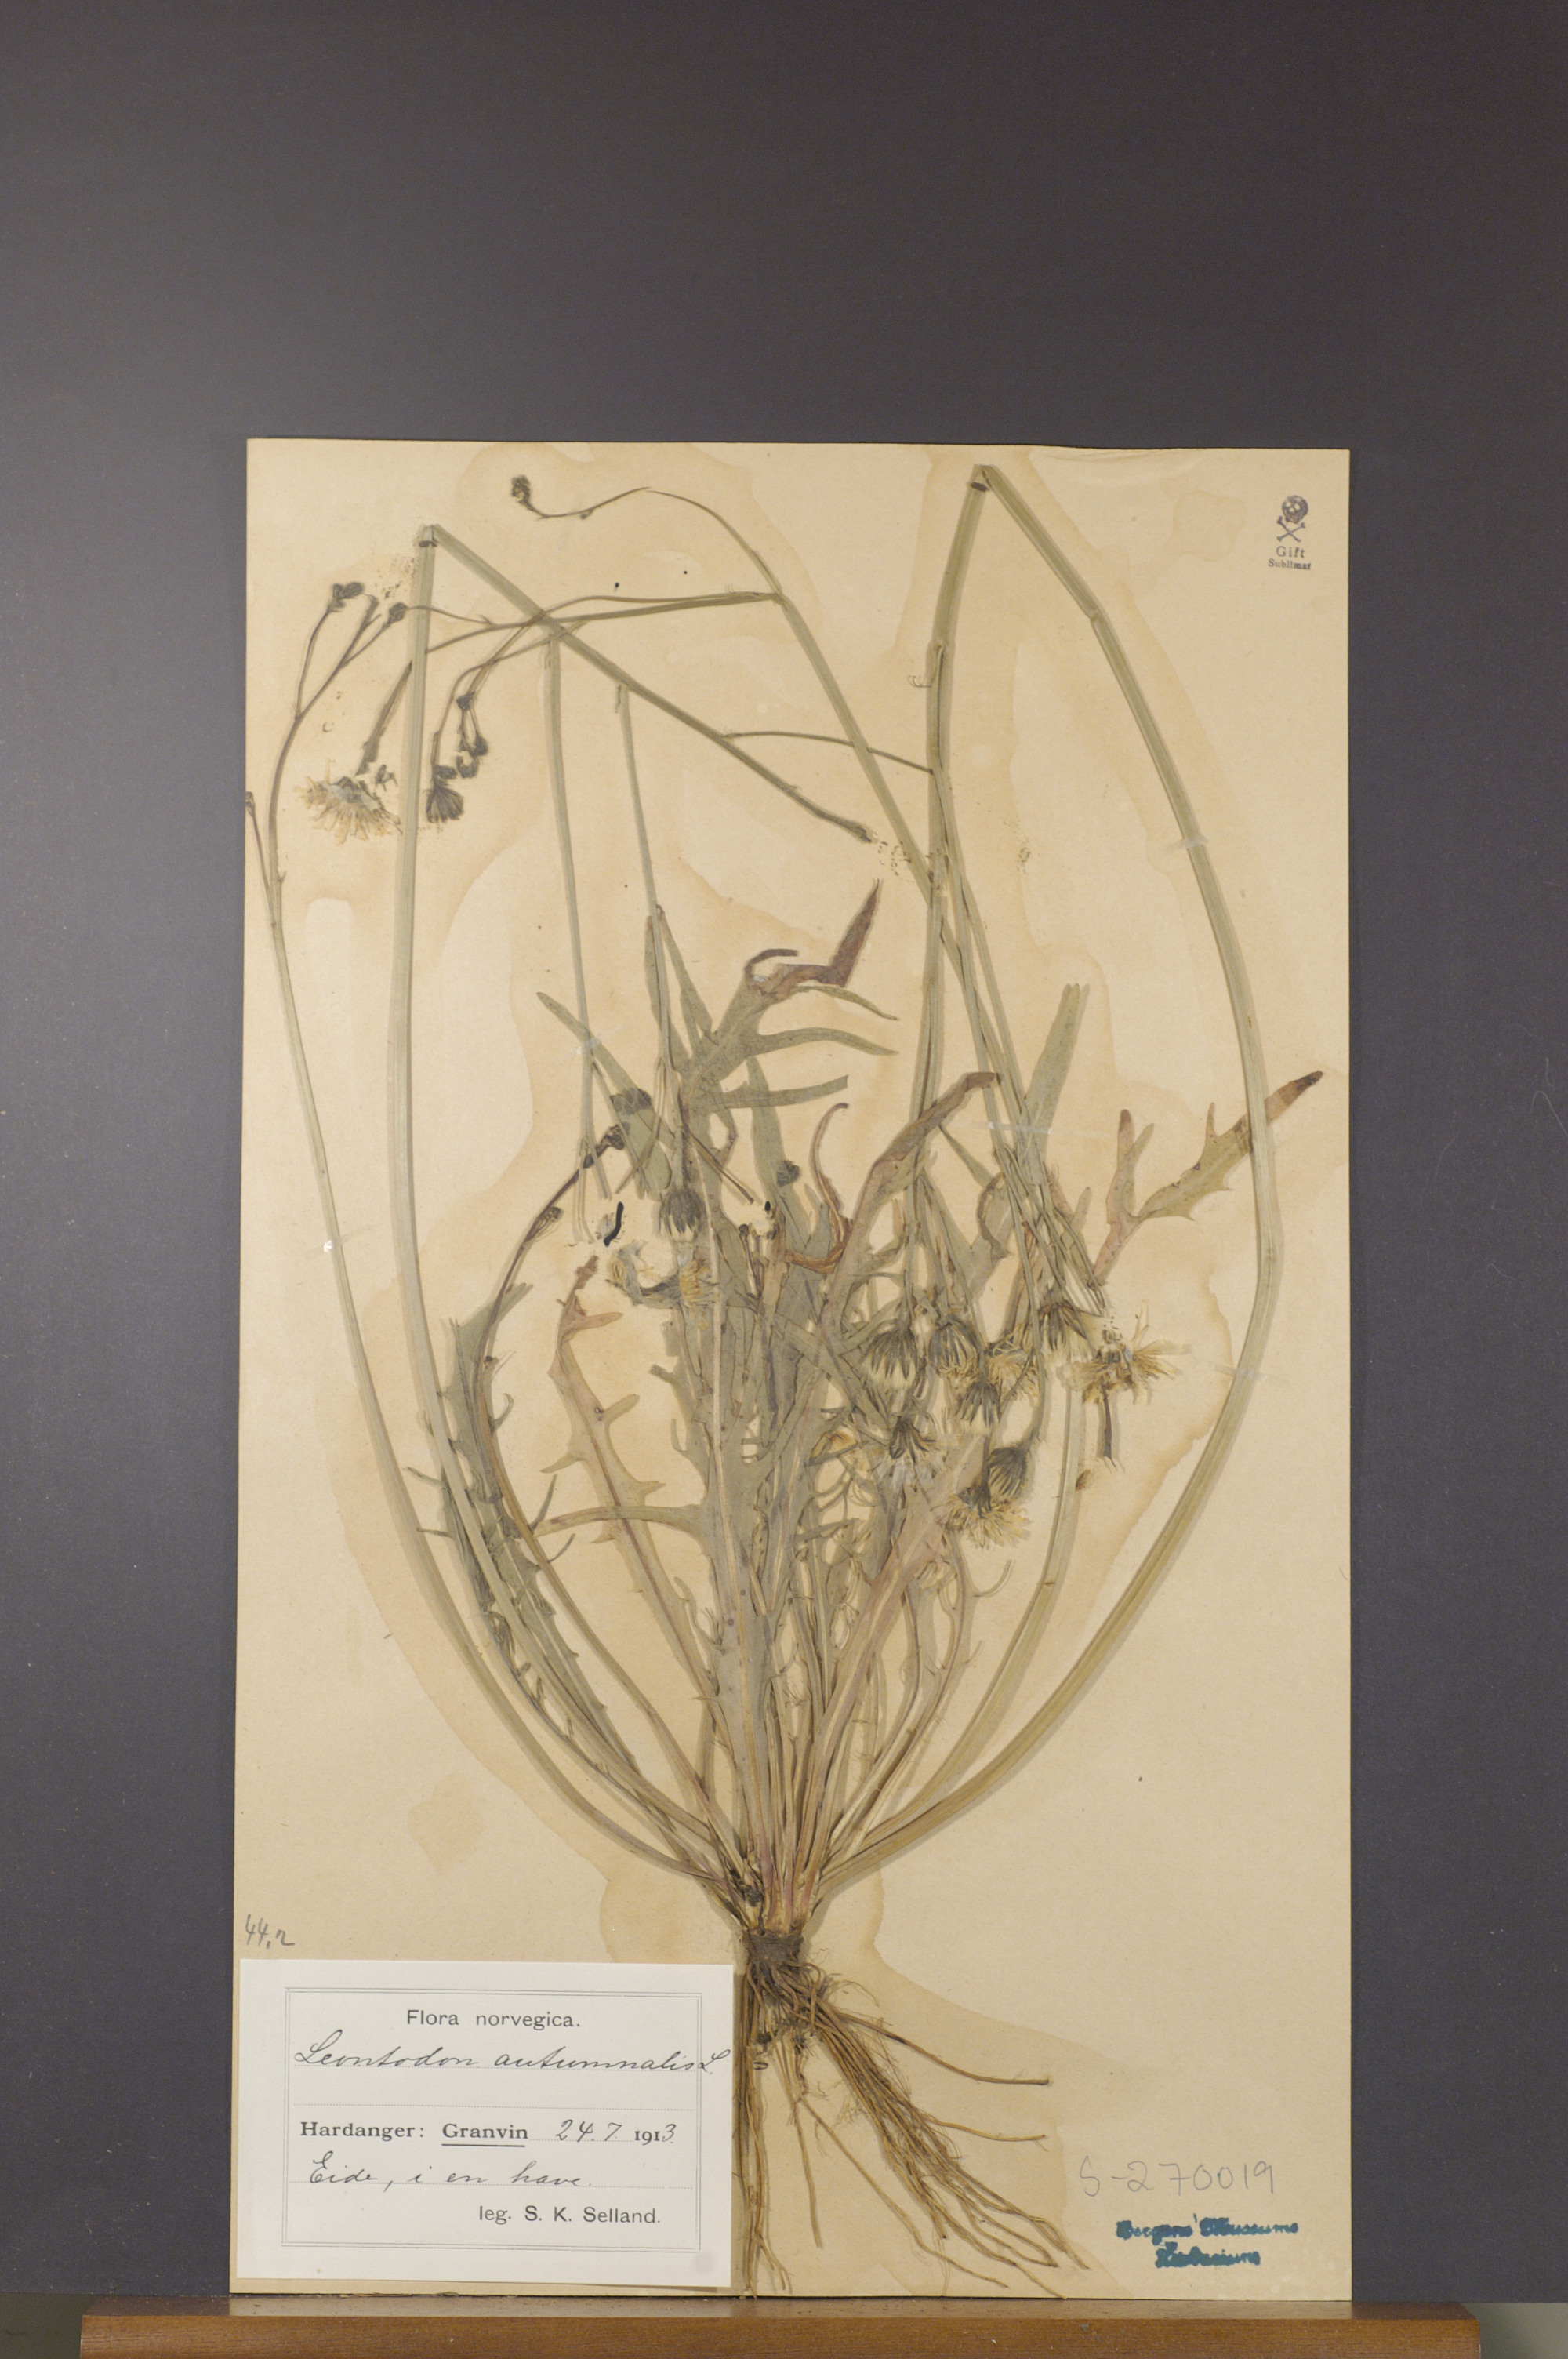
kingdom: Plantae
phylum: Tracheophyta
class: Magnoliopsida
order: Asterales
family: Asteraceae
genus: Scorzoneroides
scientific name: Scorzoneroides autumnalis
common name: Autumn hawkbit
